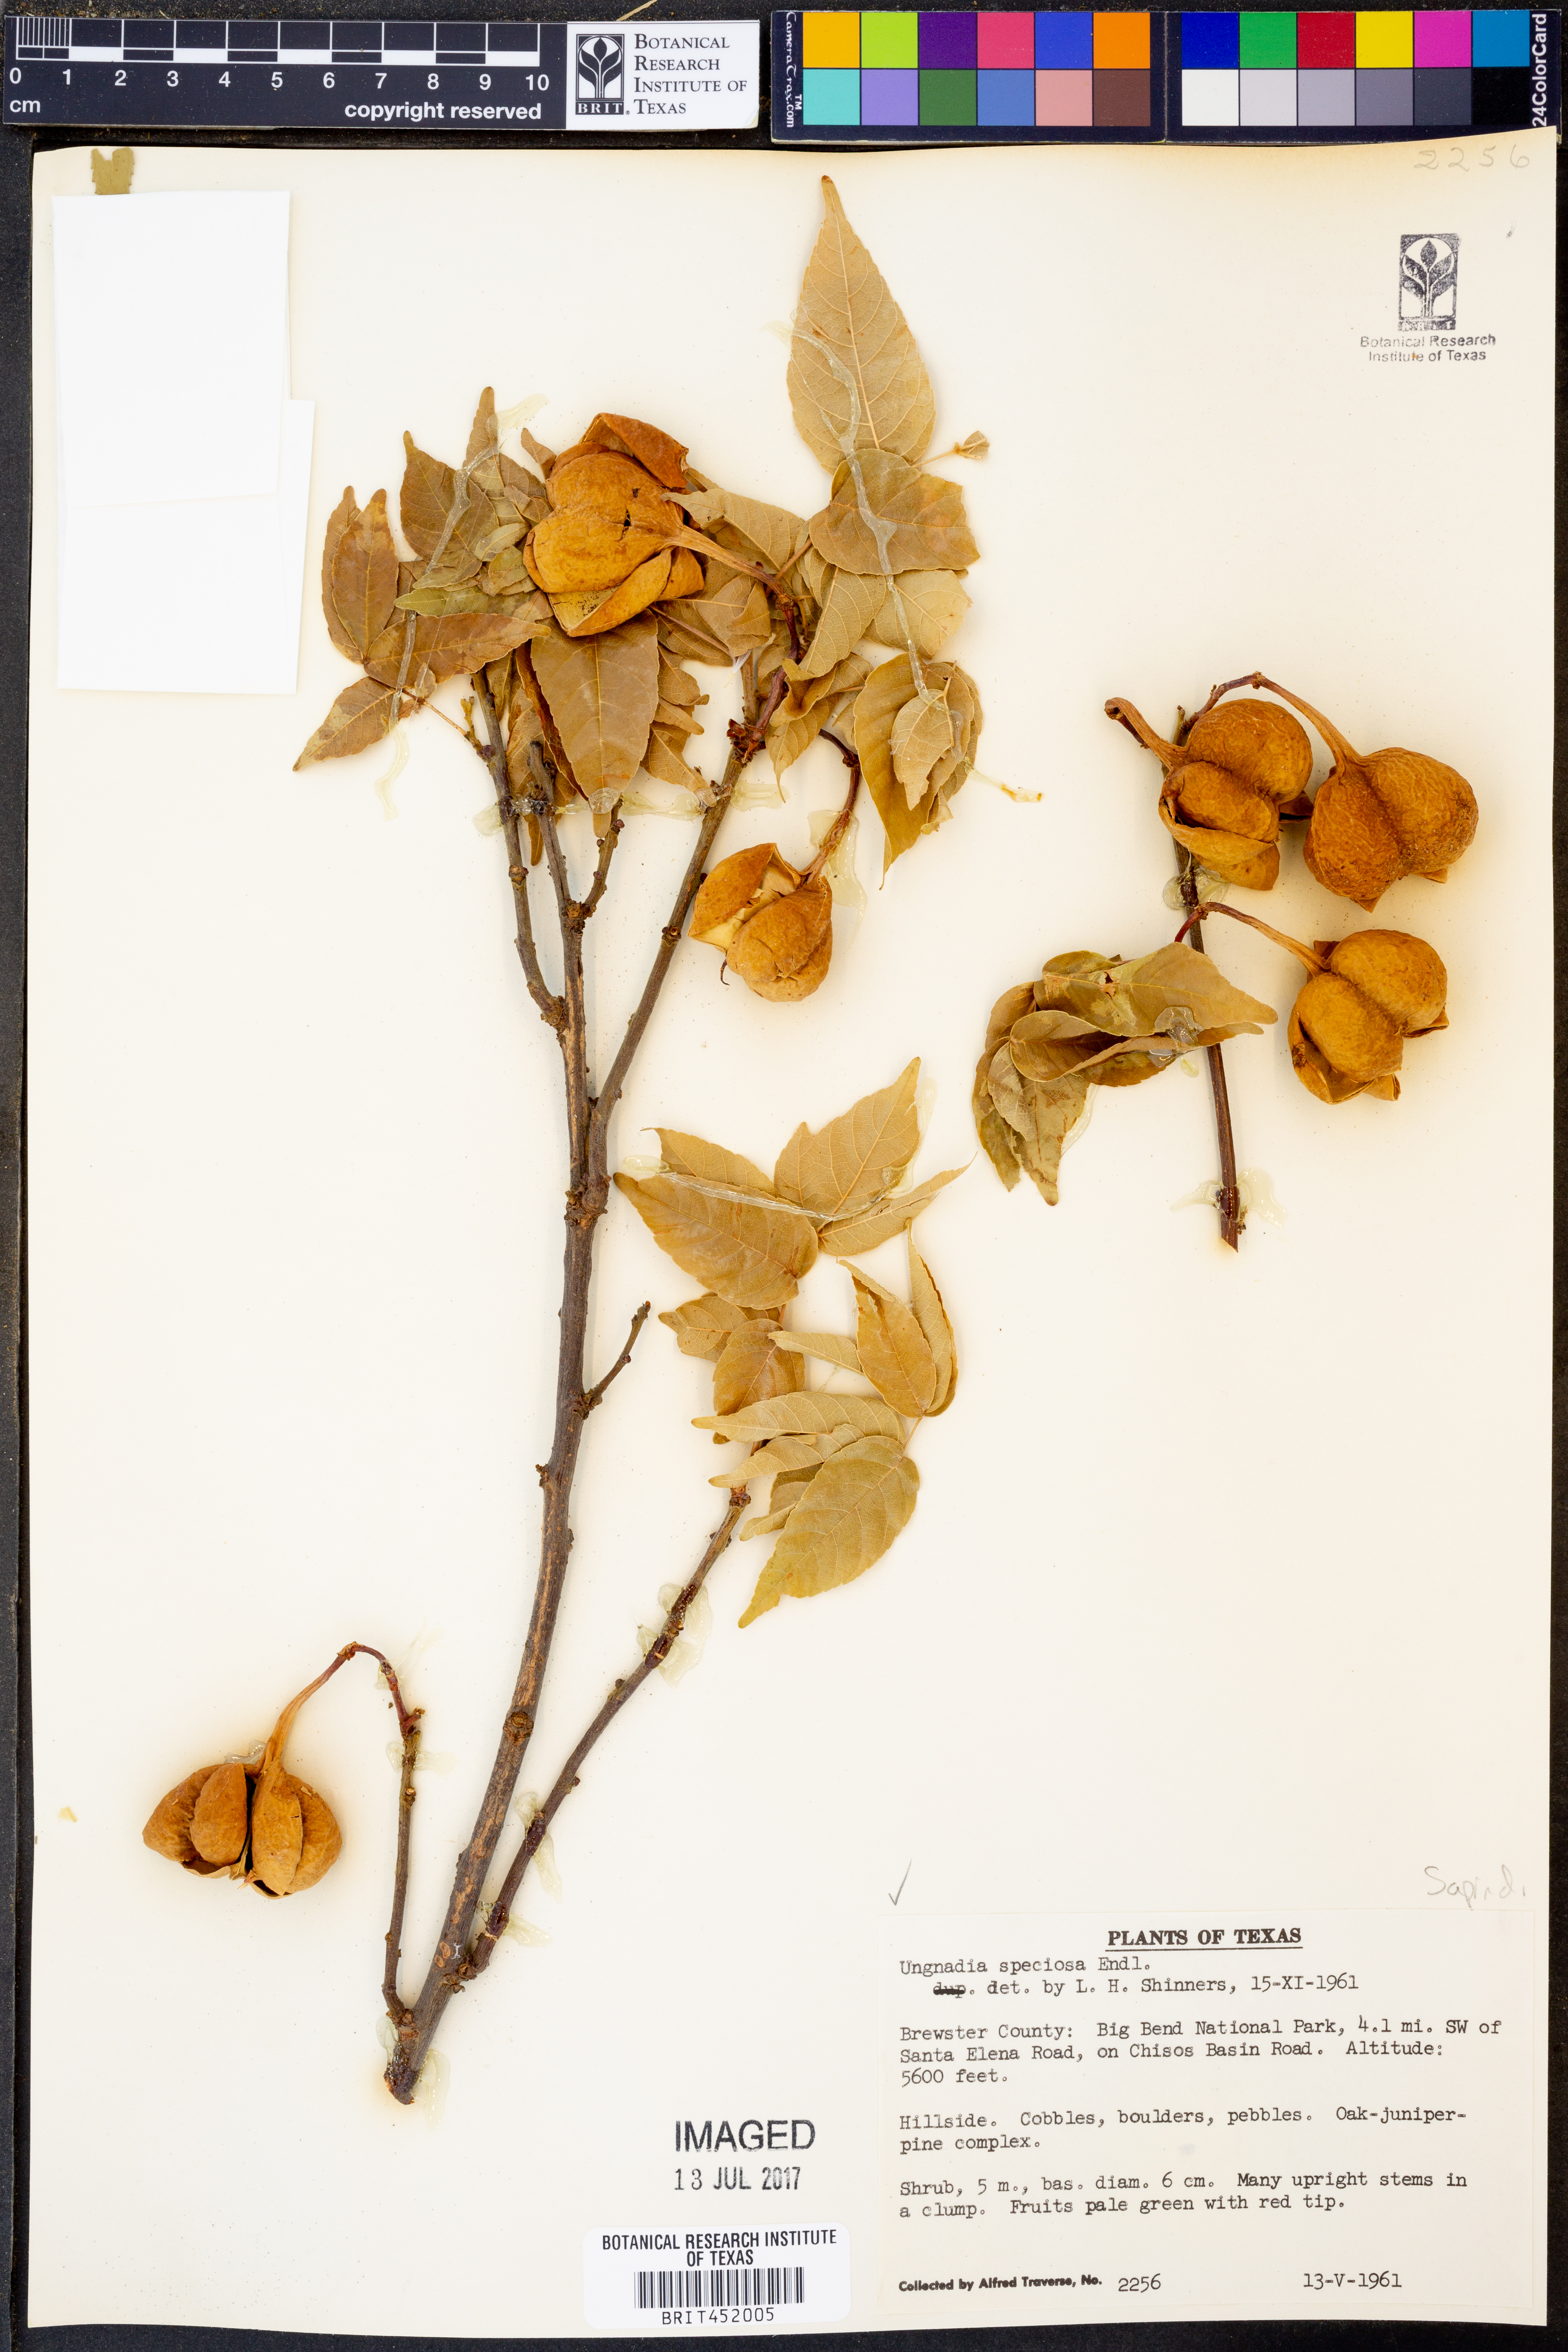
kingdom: Plantae
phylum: Tracheophyta
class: Magnoliopsida
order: Sapindales
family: Sapindaceae
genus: Ungnadia
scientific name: Ungnadia speciosa
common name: Texas-buckeye
